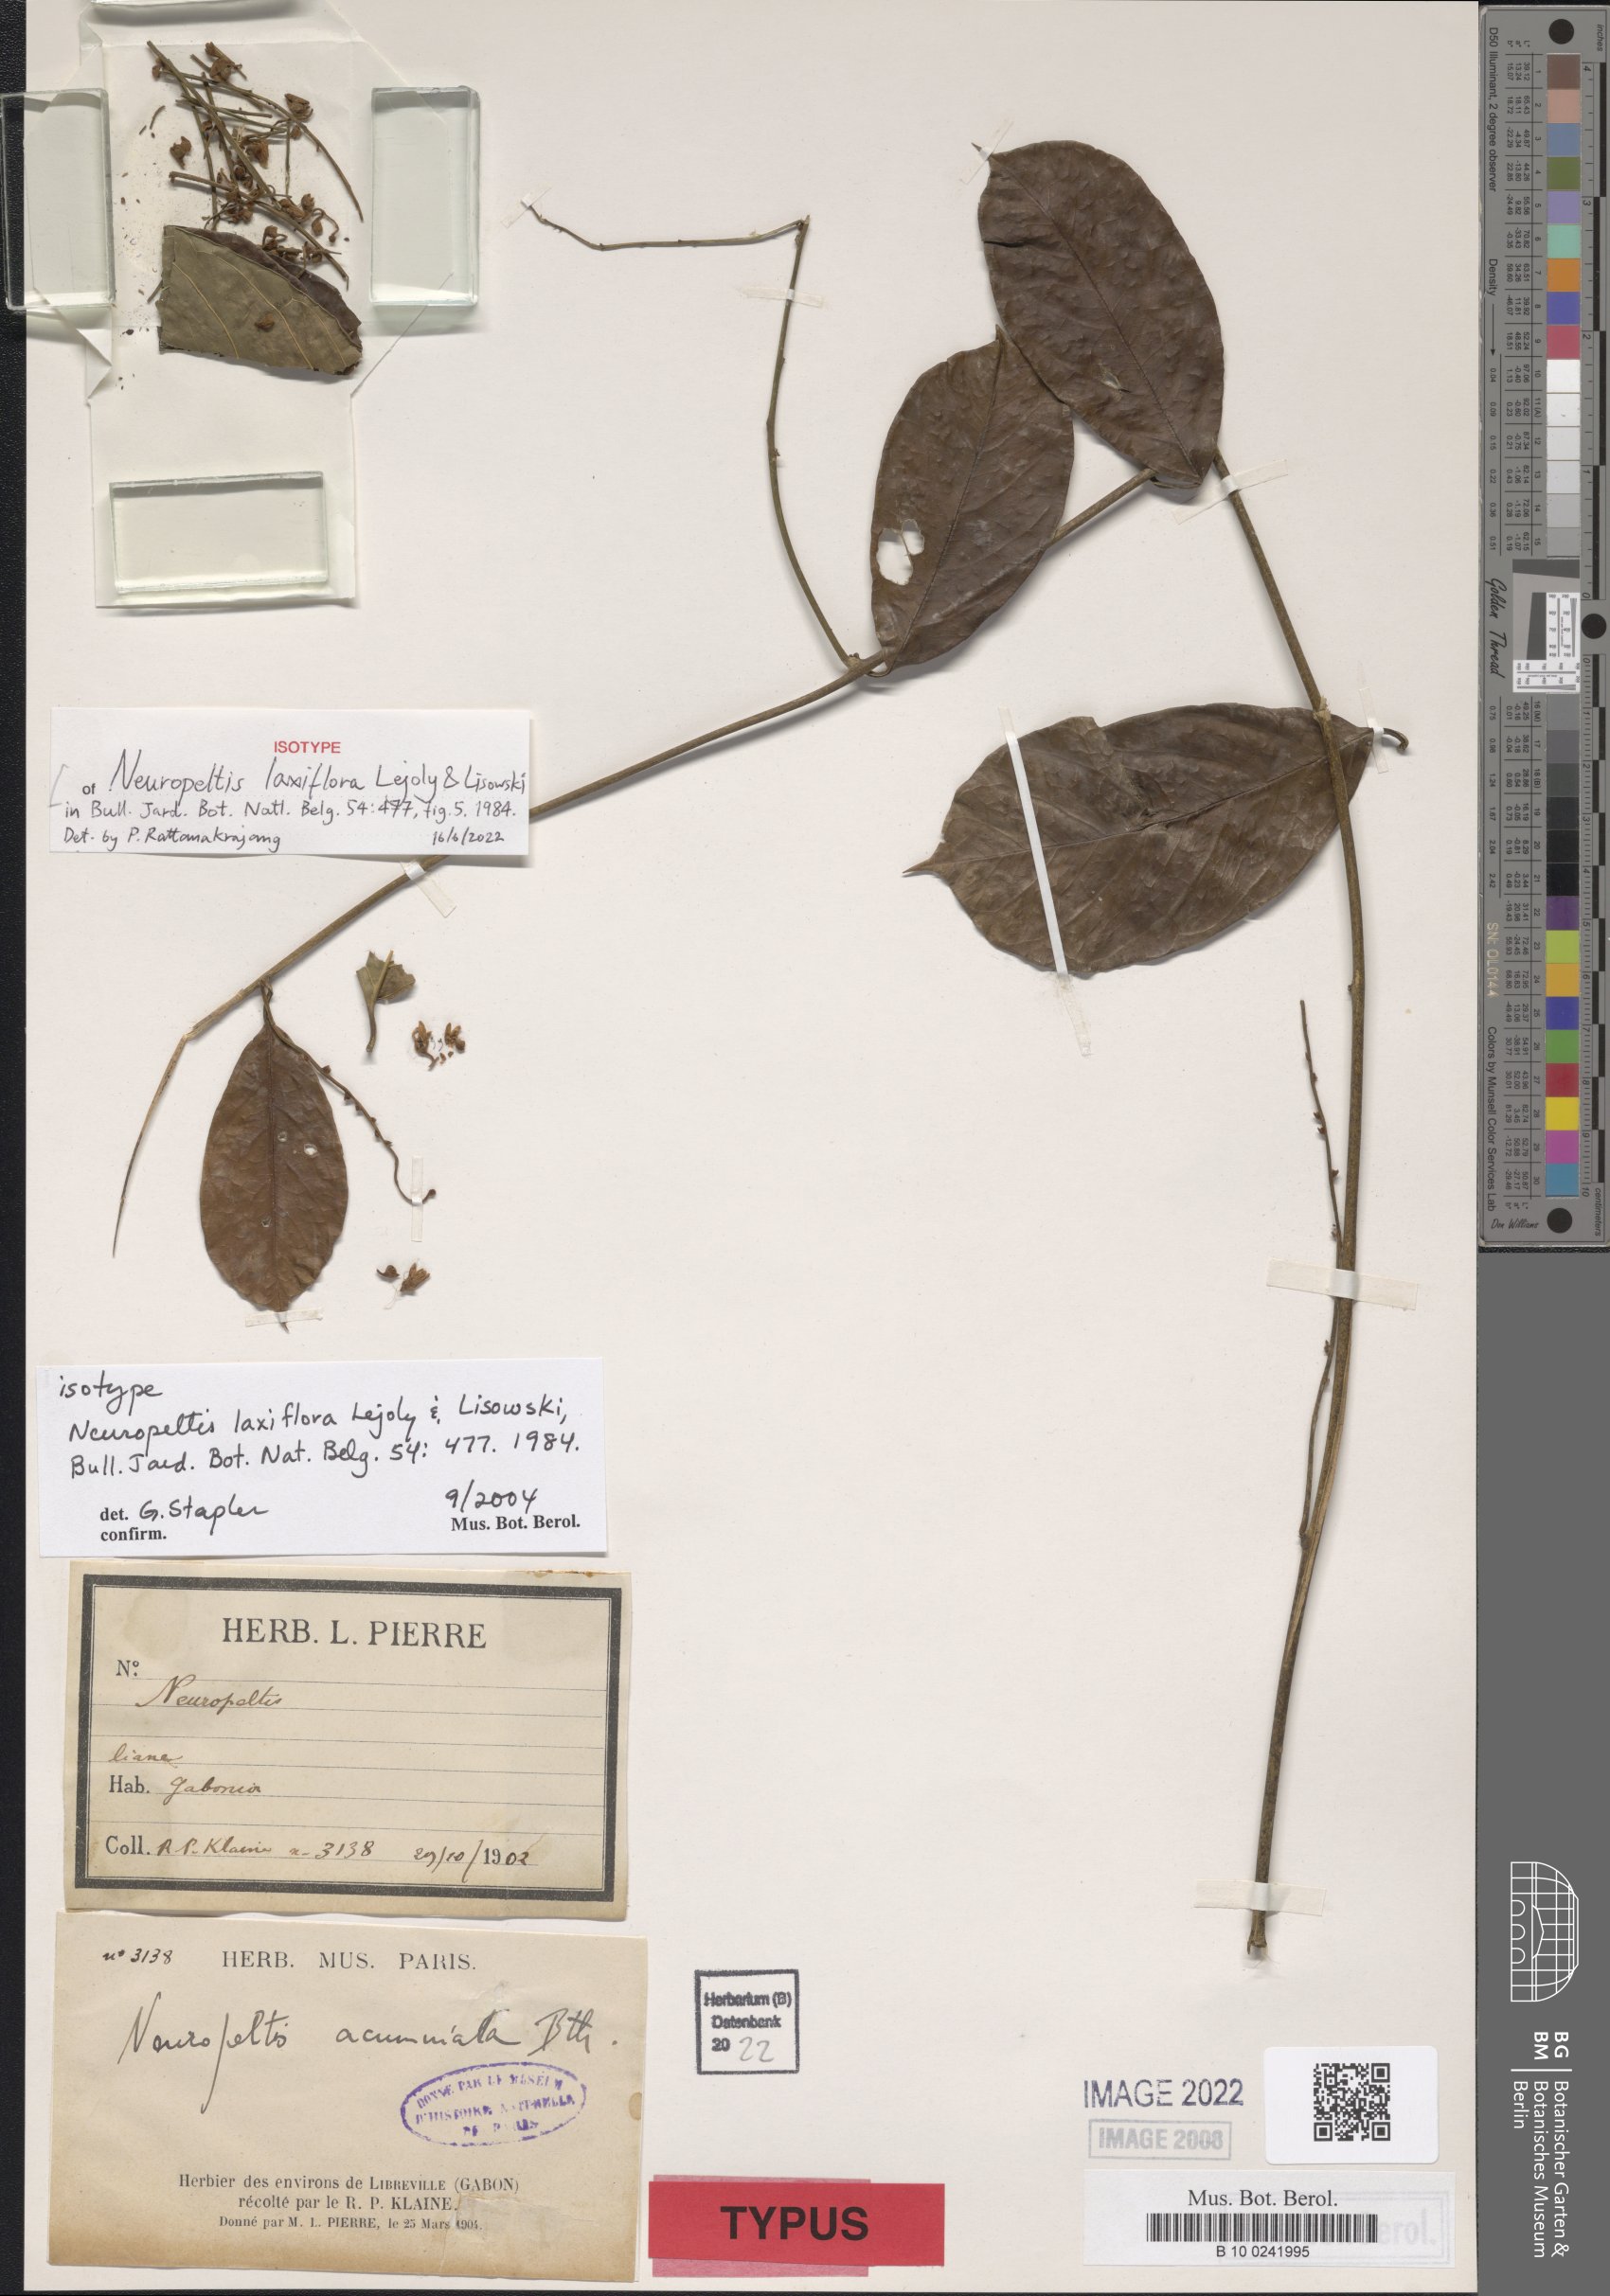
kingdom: Plantae
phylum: Tracheophyta
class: Magnoliopsida
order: Solanales
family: Convolvulaceae
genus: Neuropeltis
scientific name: Neuropeltis laxiflora
